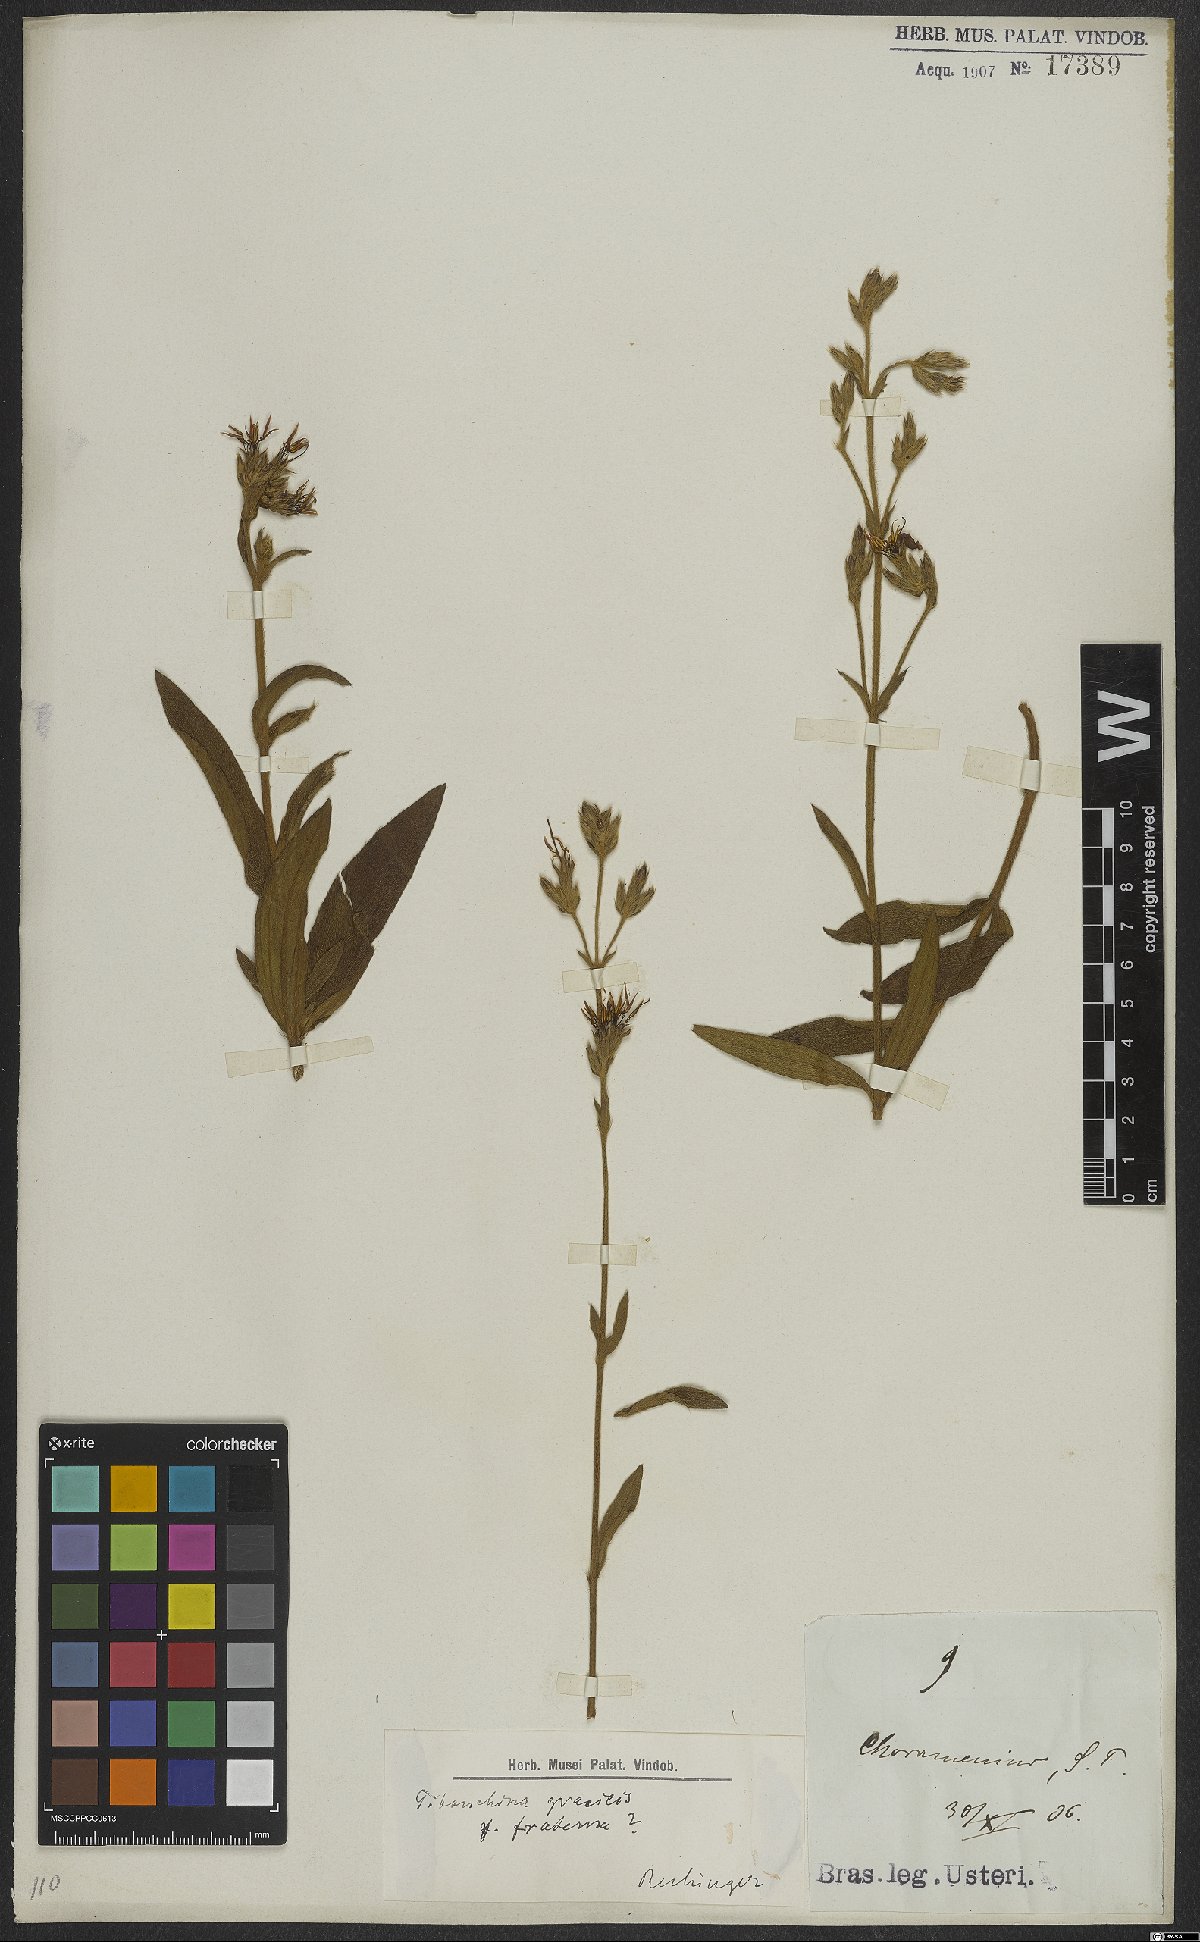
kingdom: Plantae
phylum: Tracheophyta
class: Magnoliopsida
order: Myrtales
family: Melastomataceae
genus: Chaetogastra
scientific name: Chaetogastra gracilis
